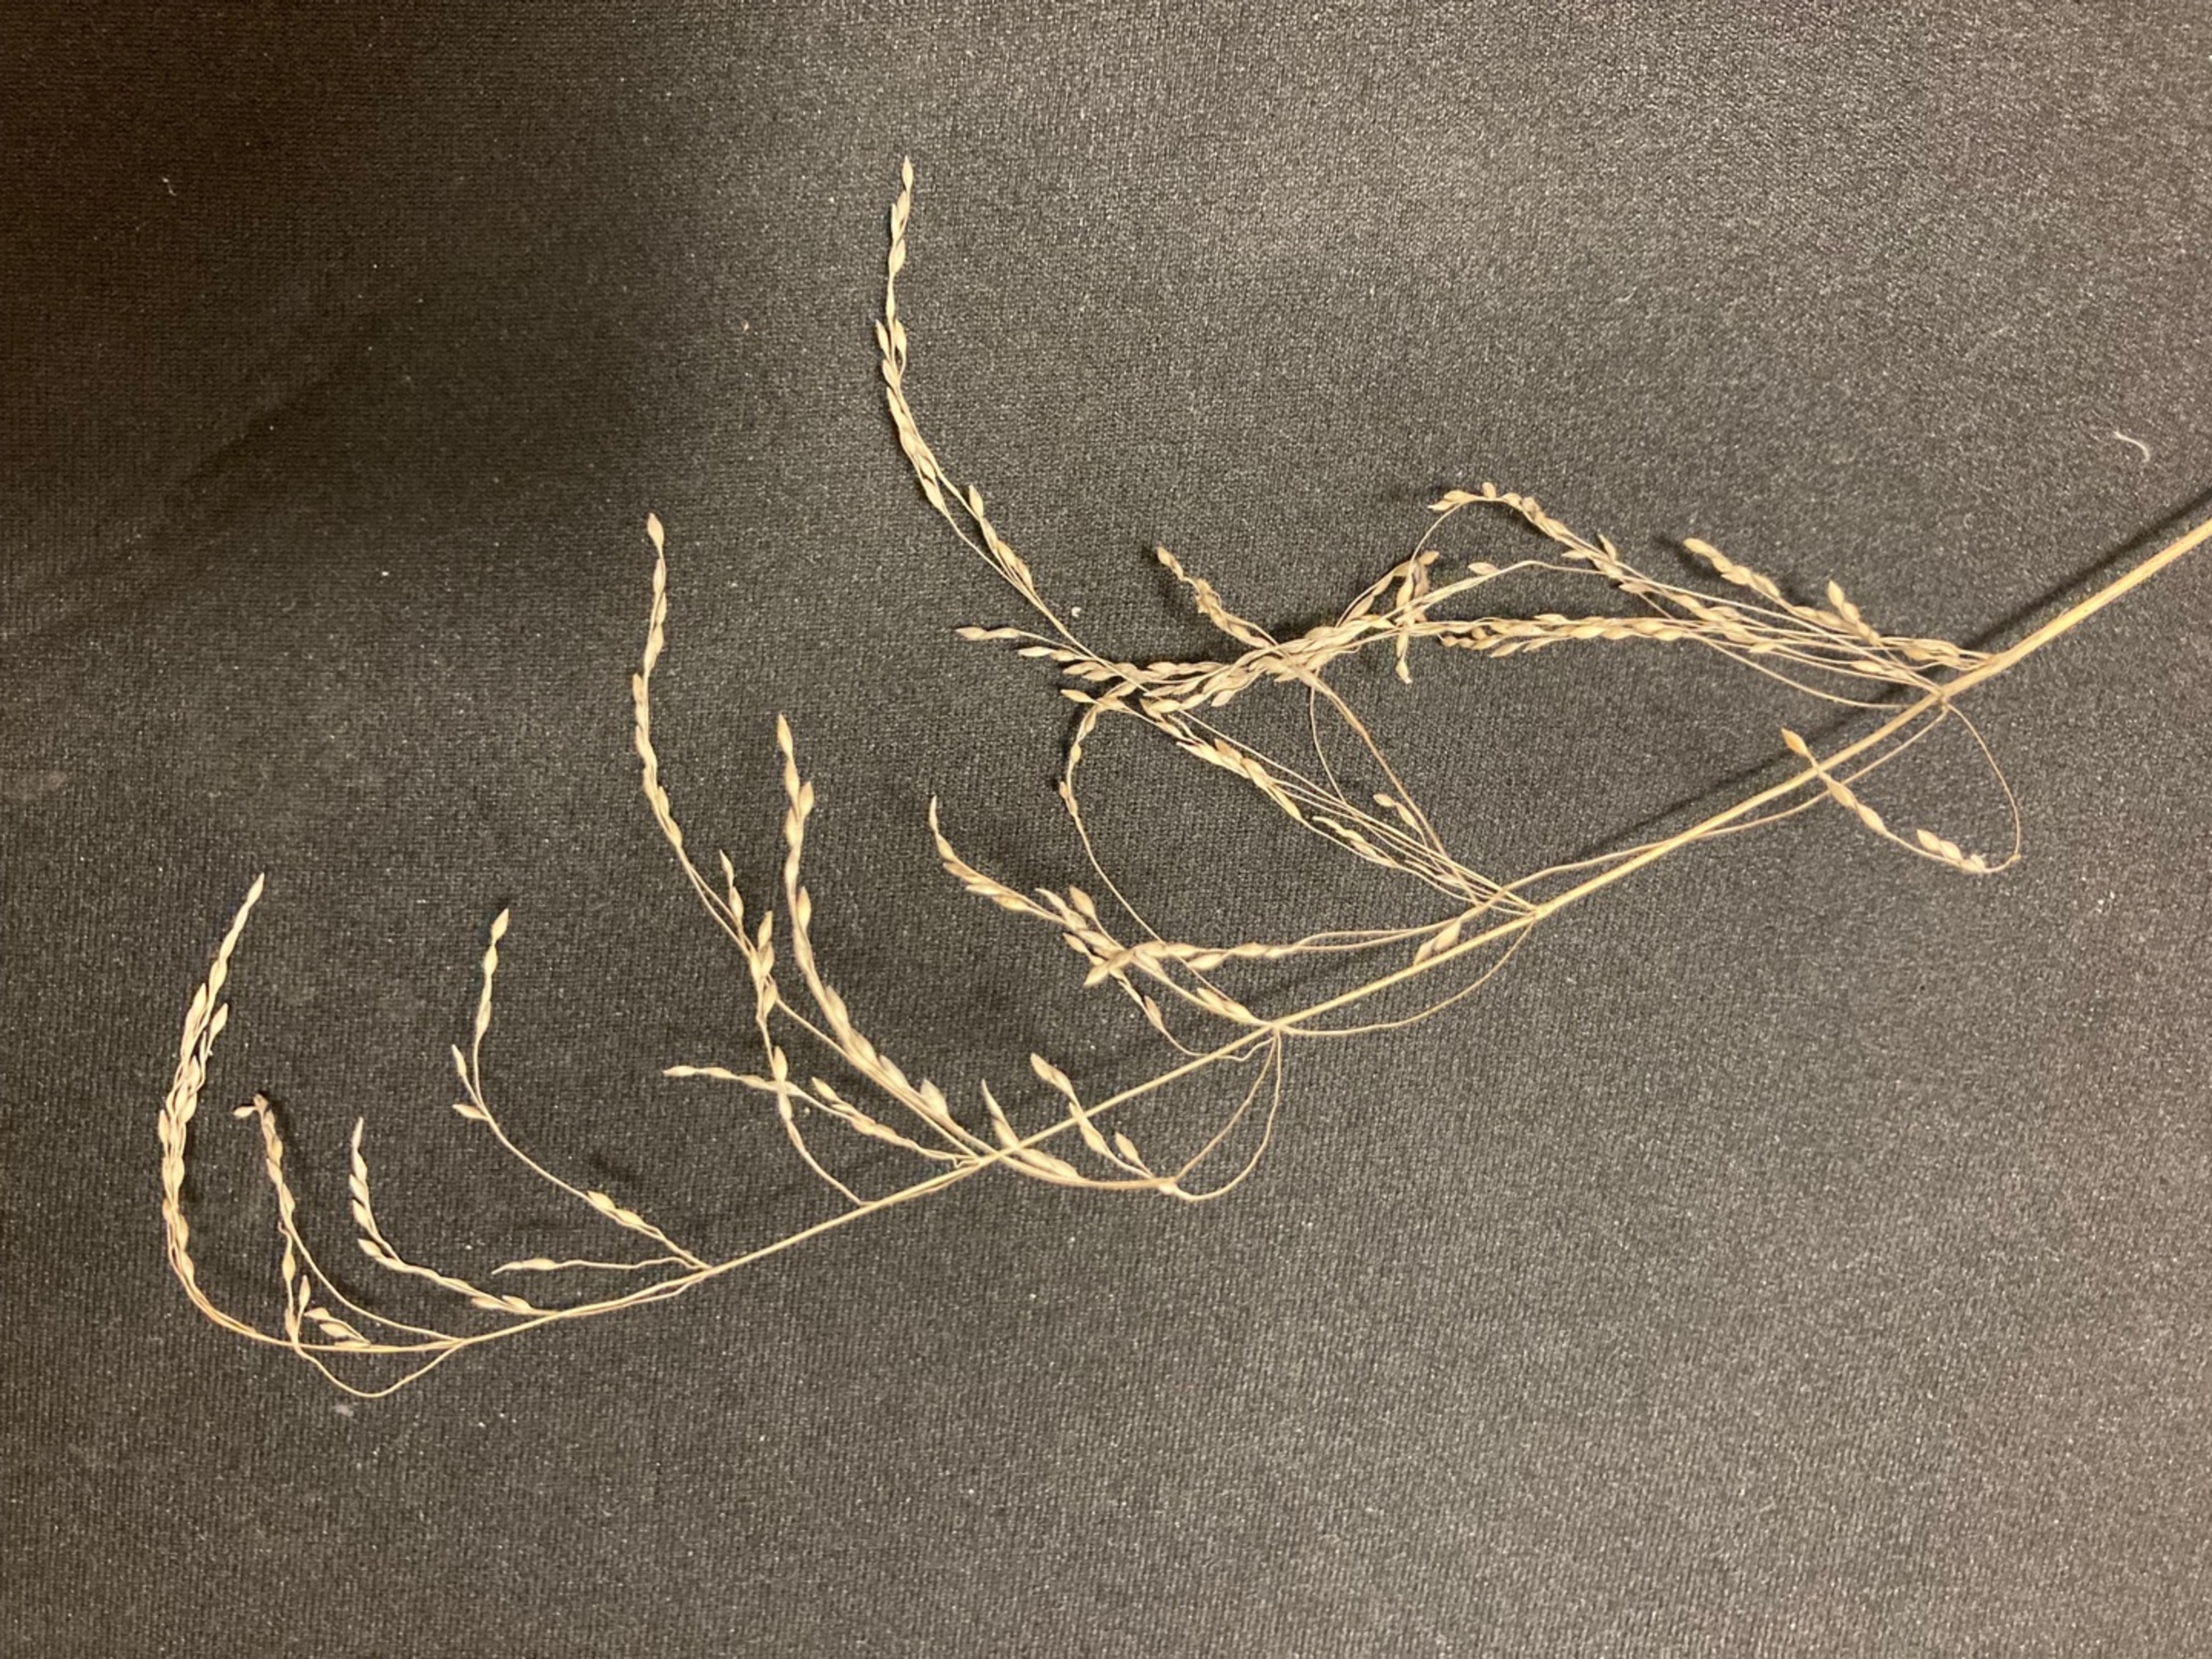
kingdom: Plantae
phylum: Tracheophyta
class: Liliopsida
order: Poales
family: Poaceae
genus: Milium
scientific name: Milium effusum
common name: Miliegræs
